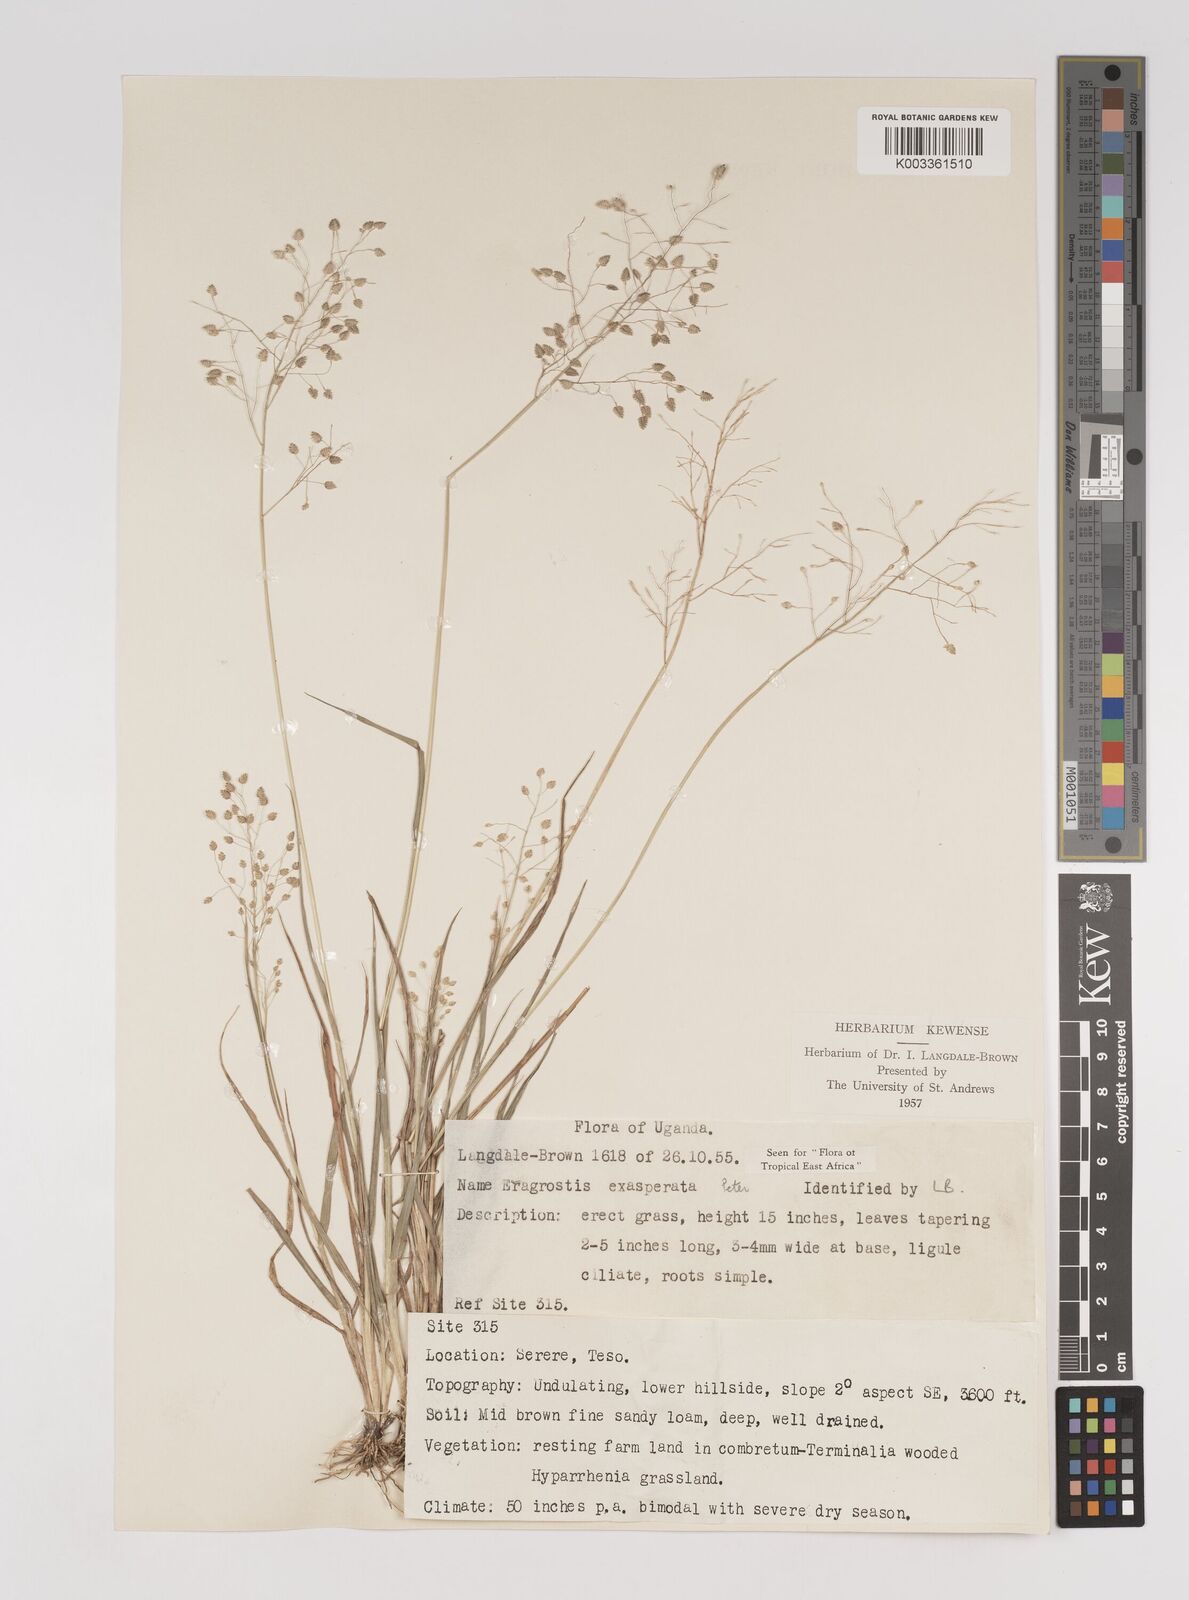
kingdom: Plantae
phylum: Tracheophyta
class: Liliopsida
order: Poales
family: Poaceae
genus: Eragrostis
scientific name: Eragrostis exasperata
